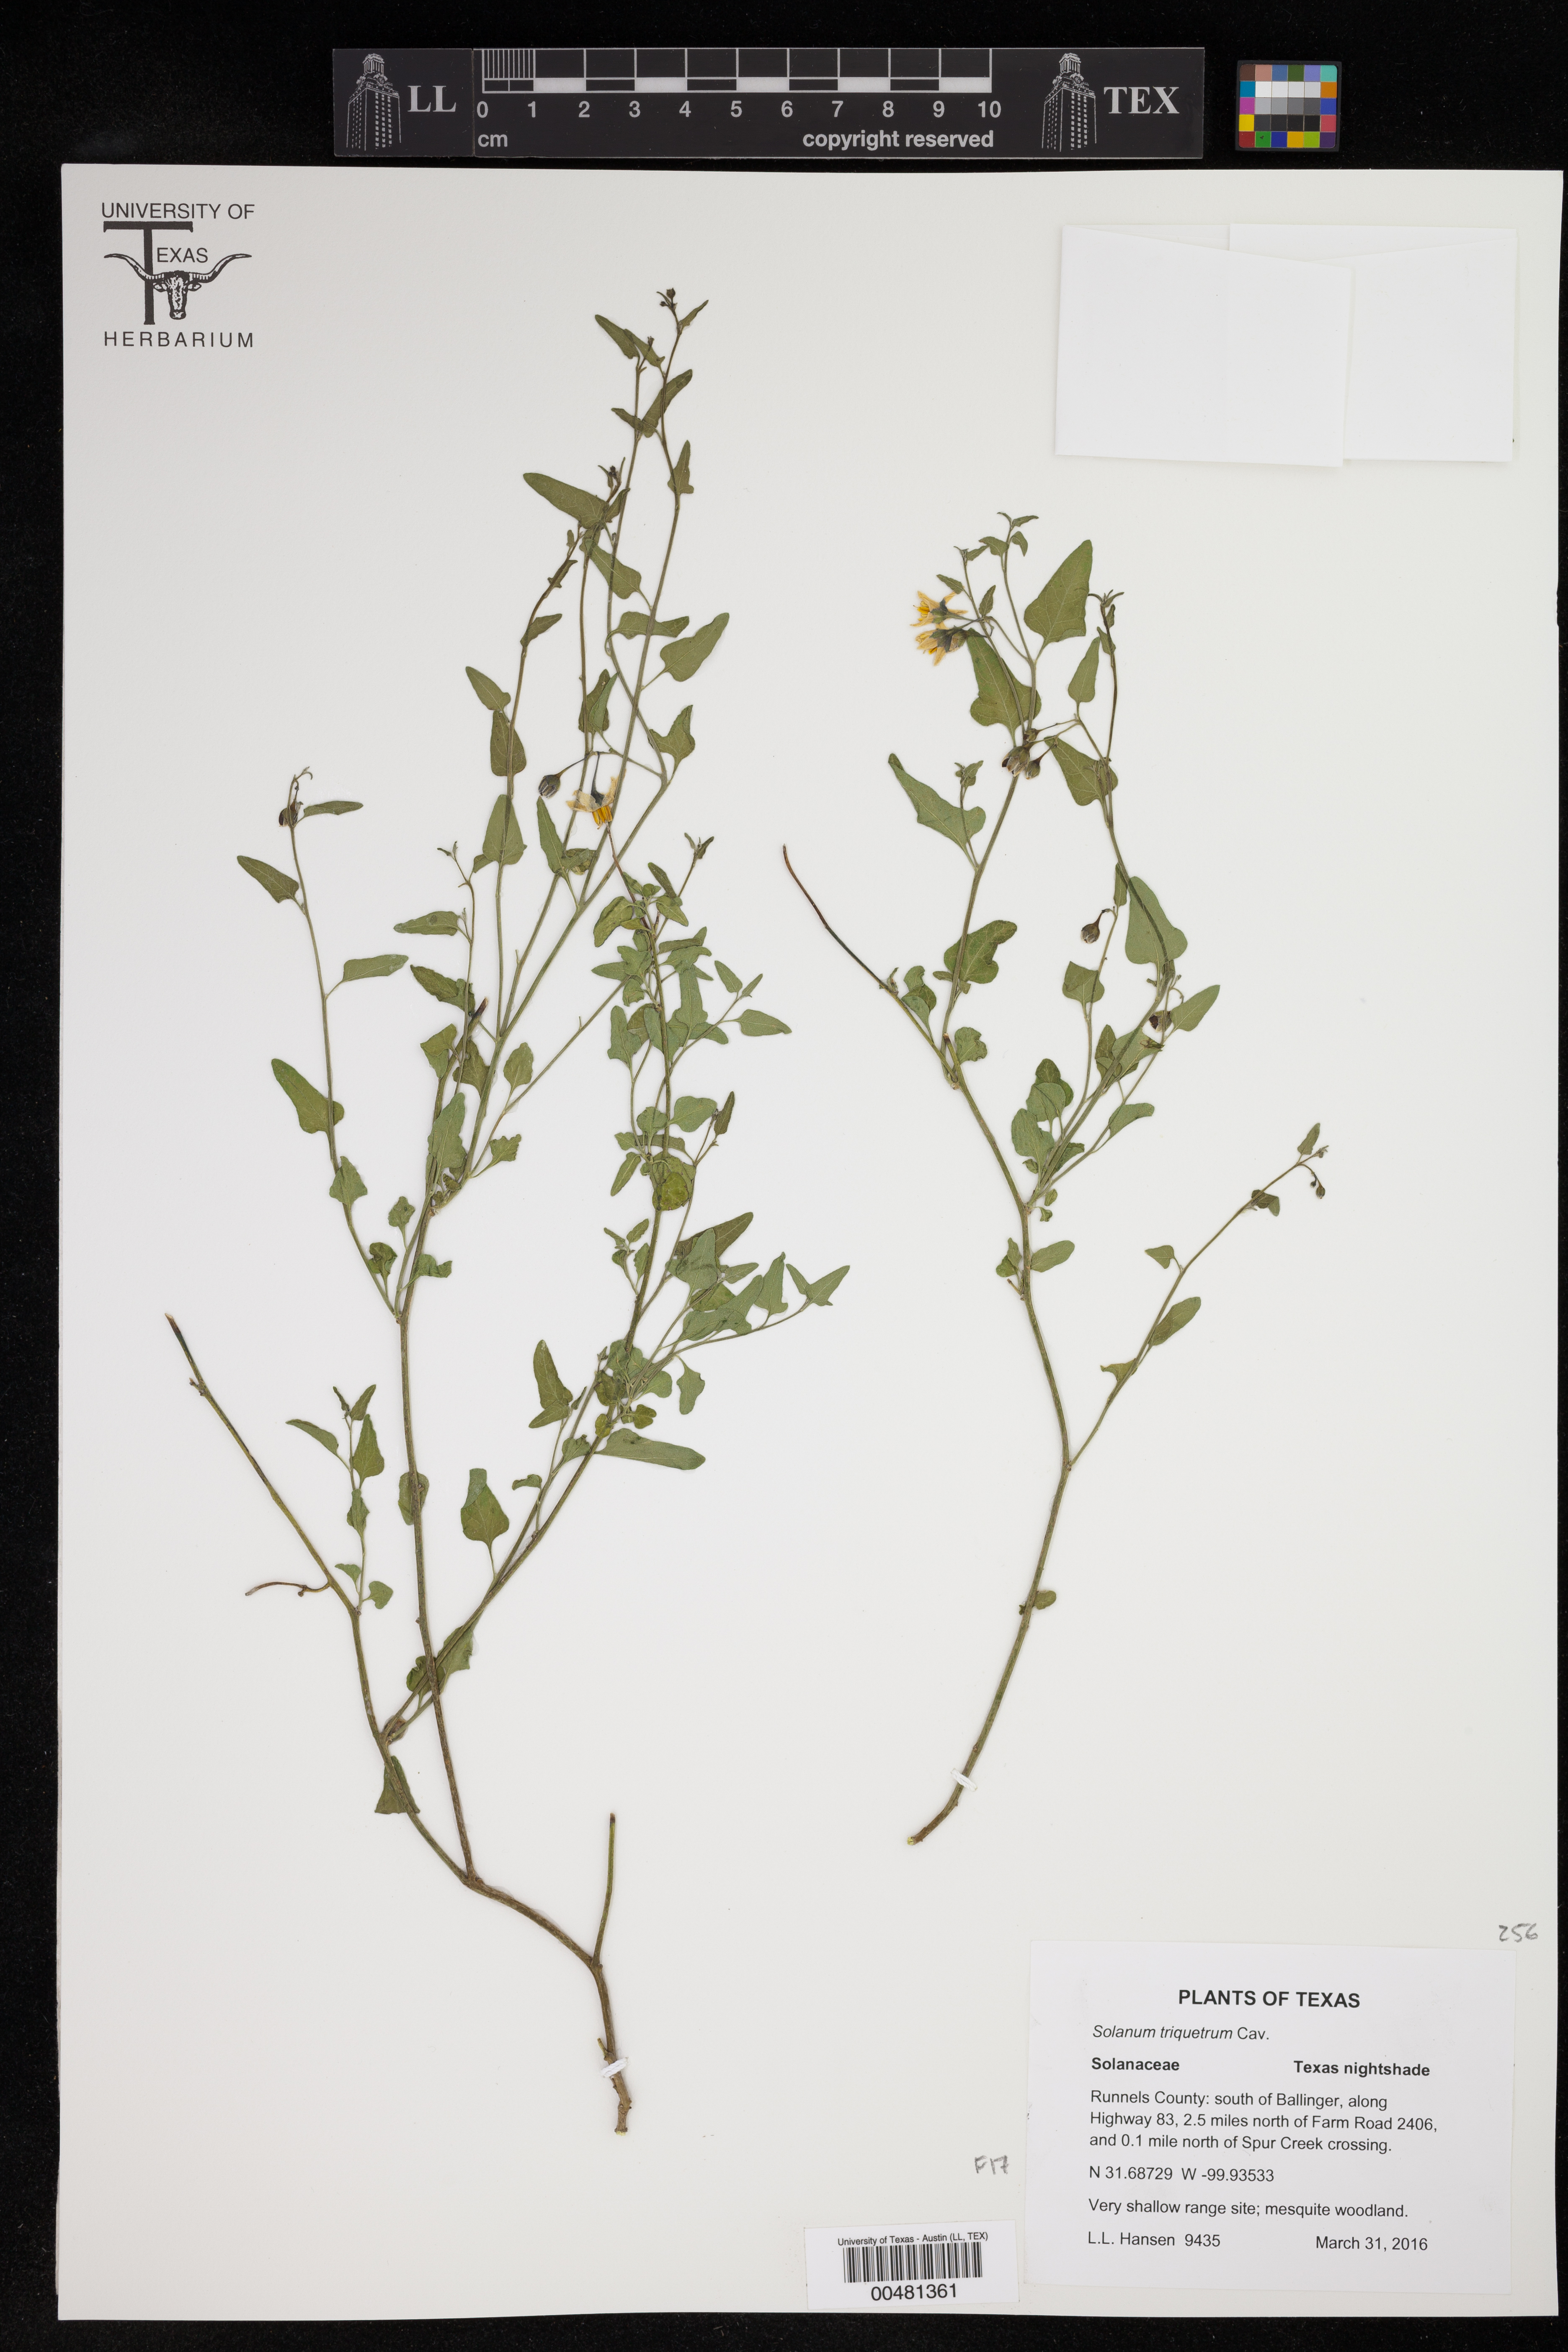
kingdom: Plantae
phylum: Tracheophyta
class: Magnoliopsida
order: Solanales
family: Solanaceae
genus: Solanum
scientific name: Solanum triquetrum
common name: Texas nightshade
